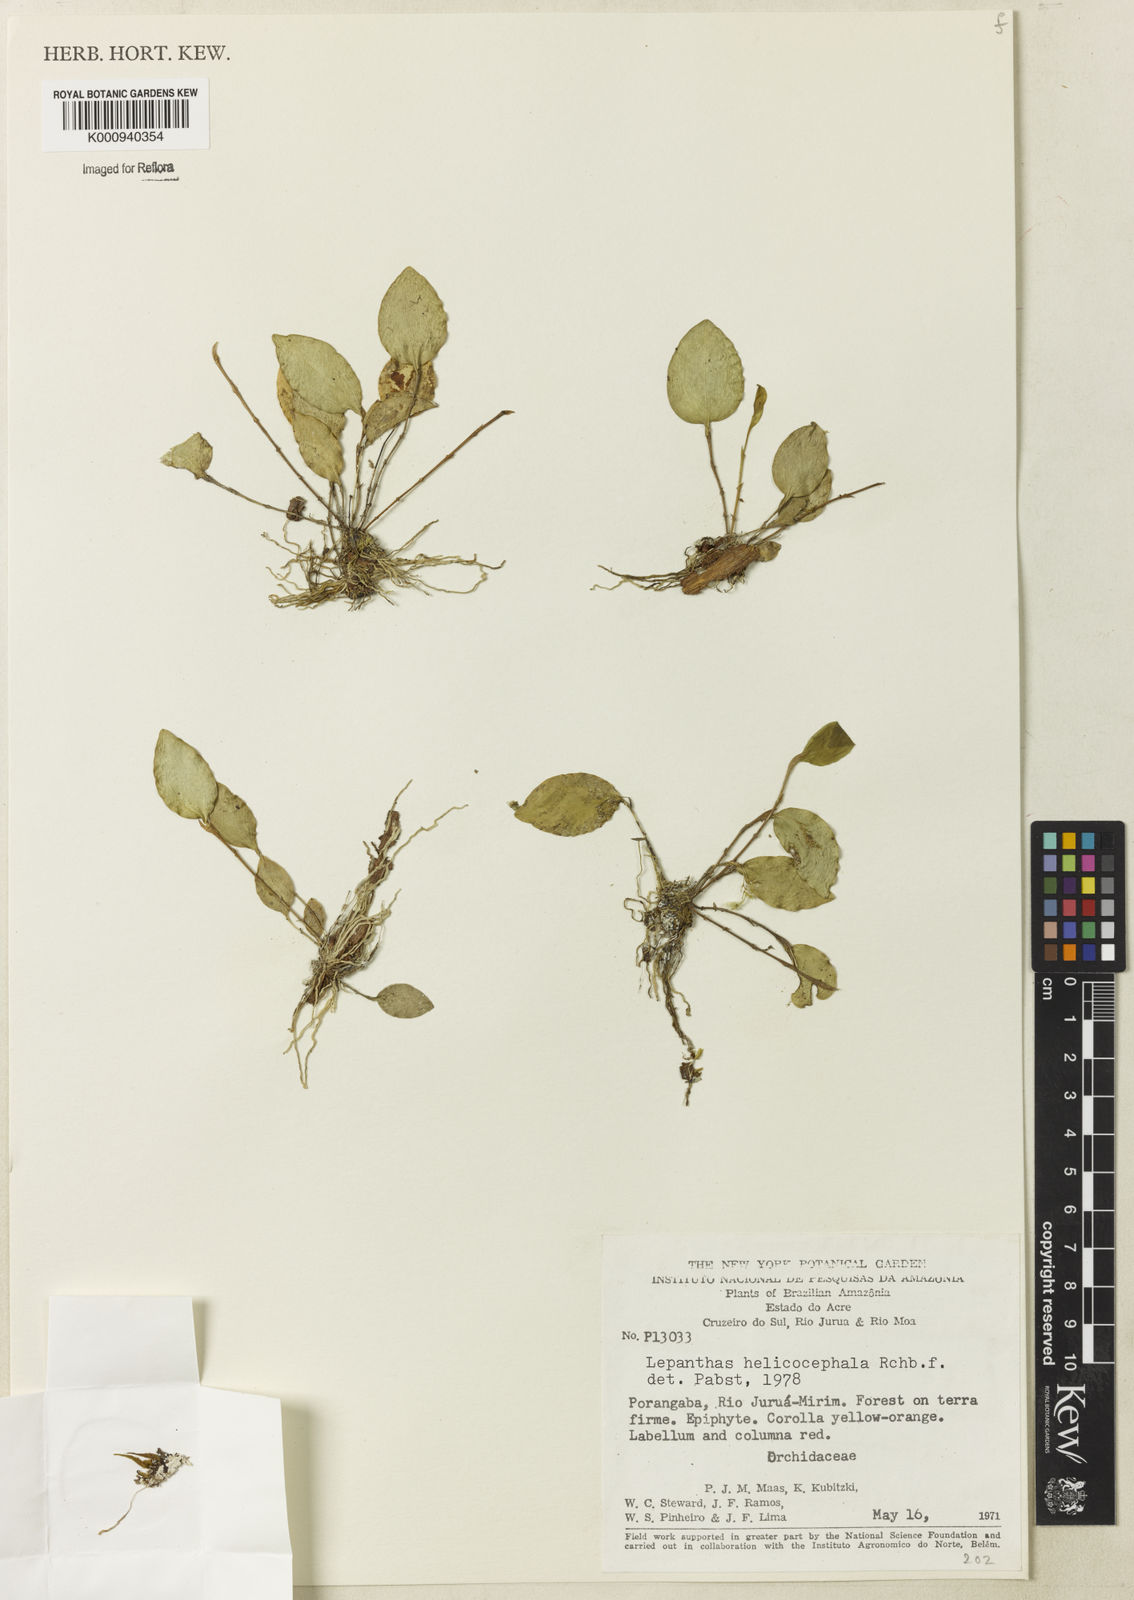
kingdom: Plantae
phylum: Tracheophyta
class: Liliopsida
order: Asparagales
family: Orchidaceae
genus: Lepanthes
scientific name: Lepanthes helicocephala
